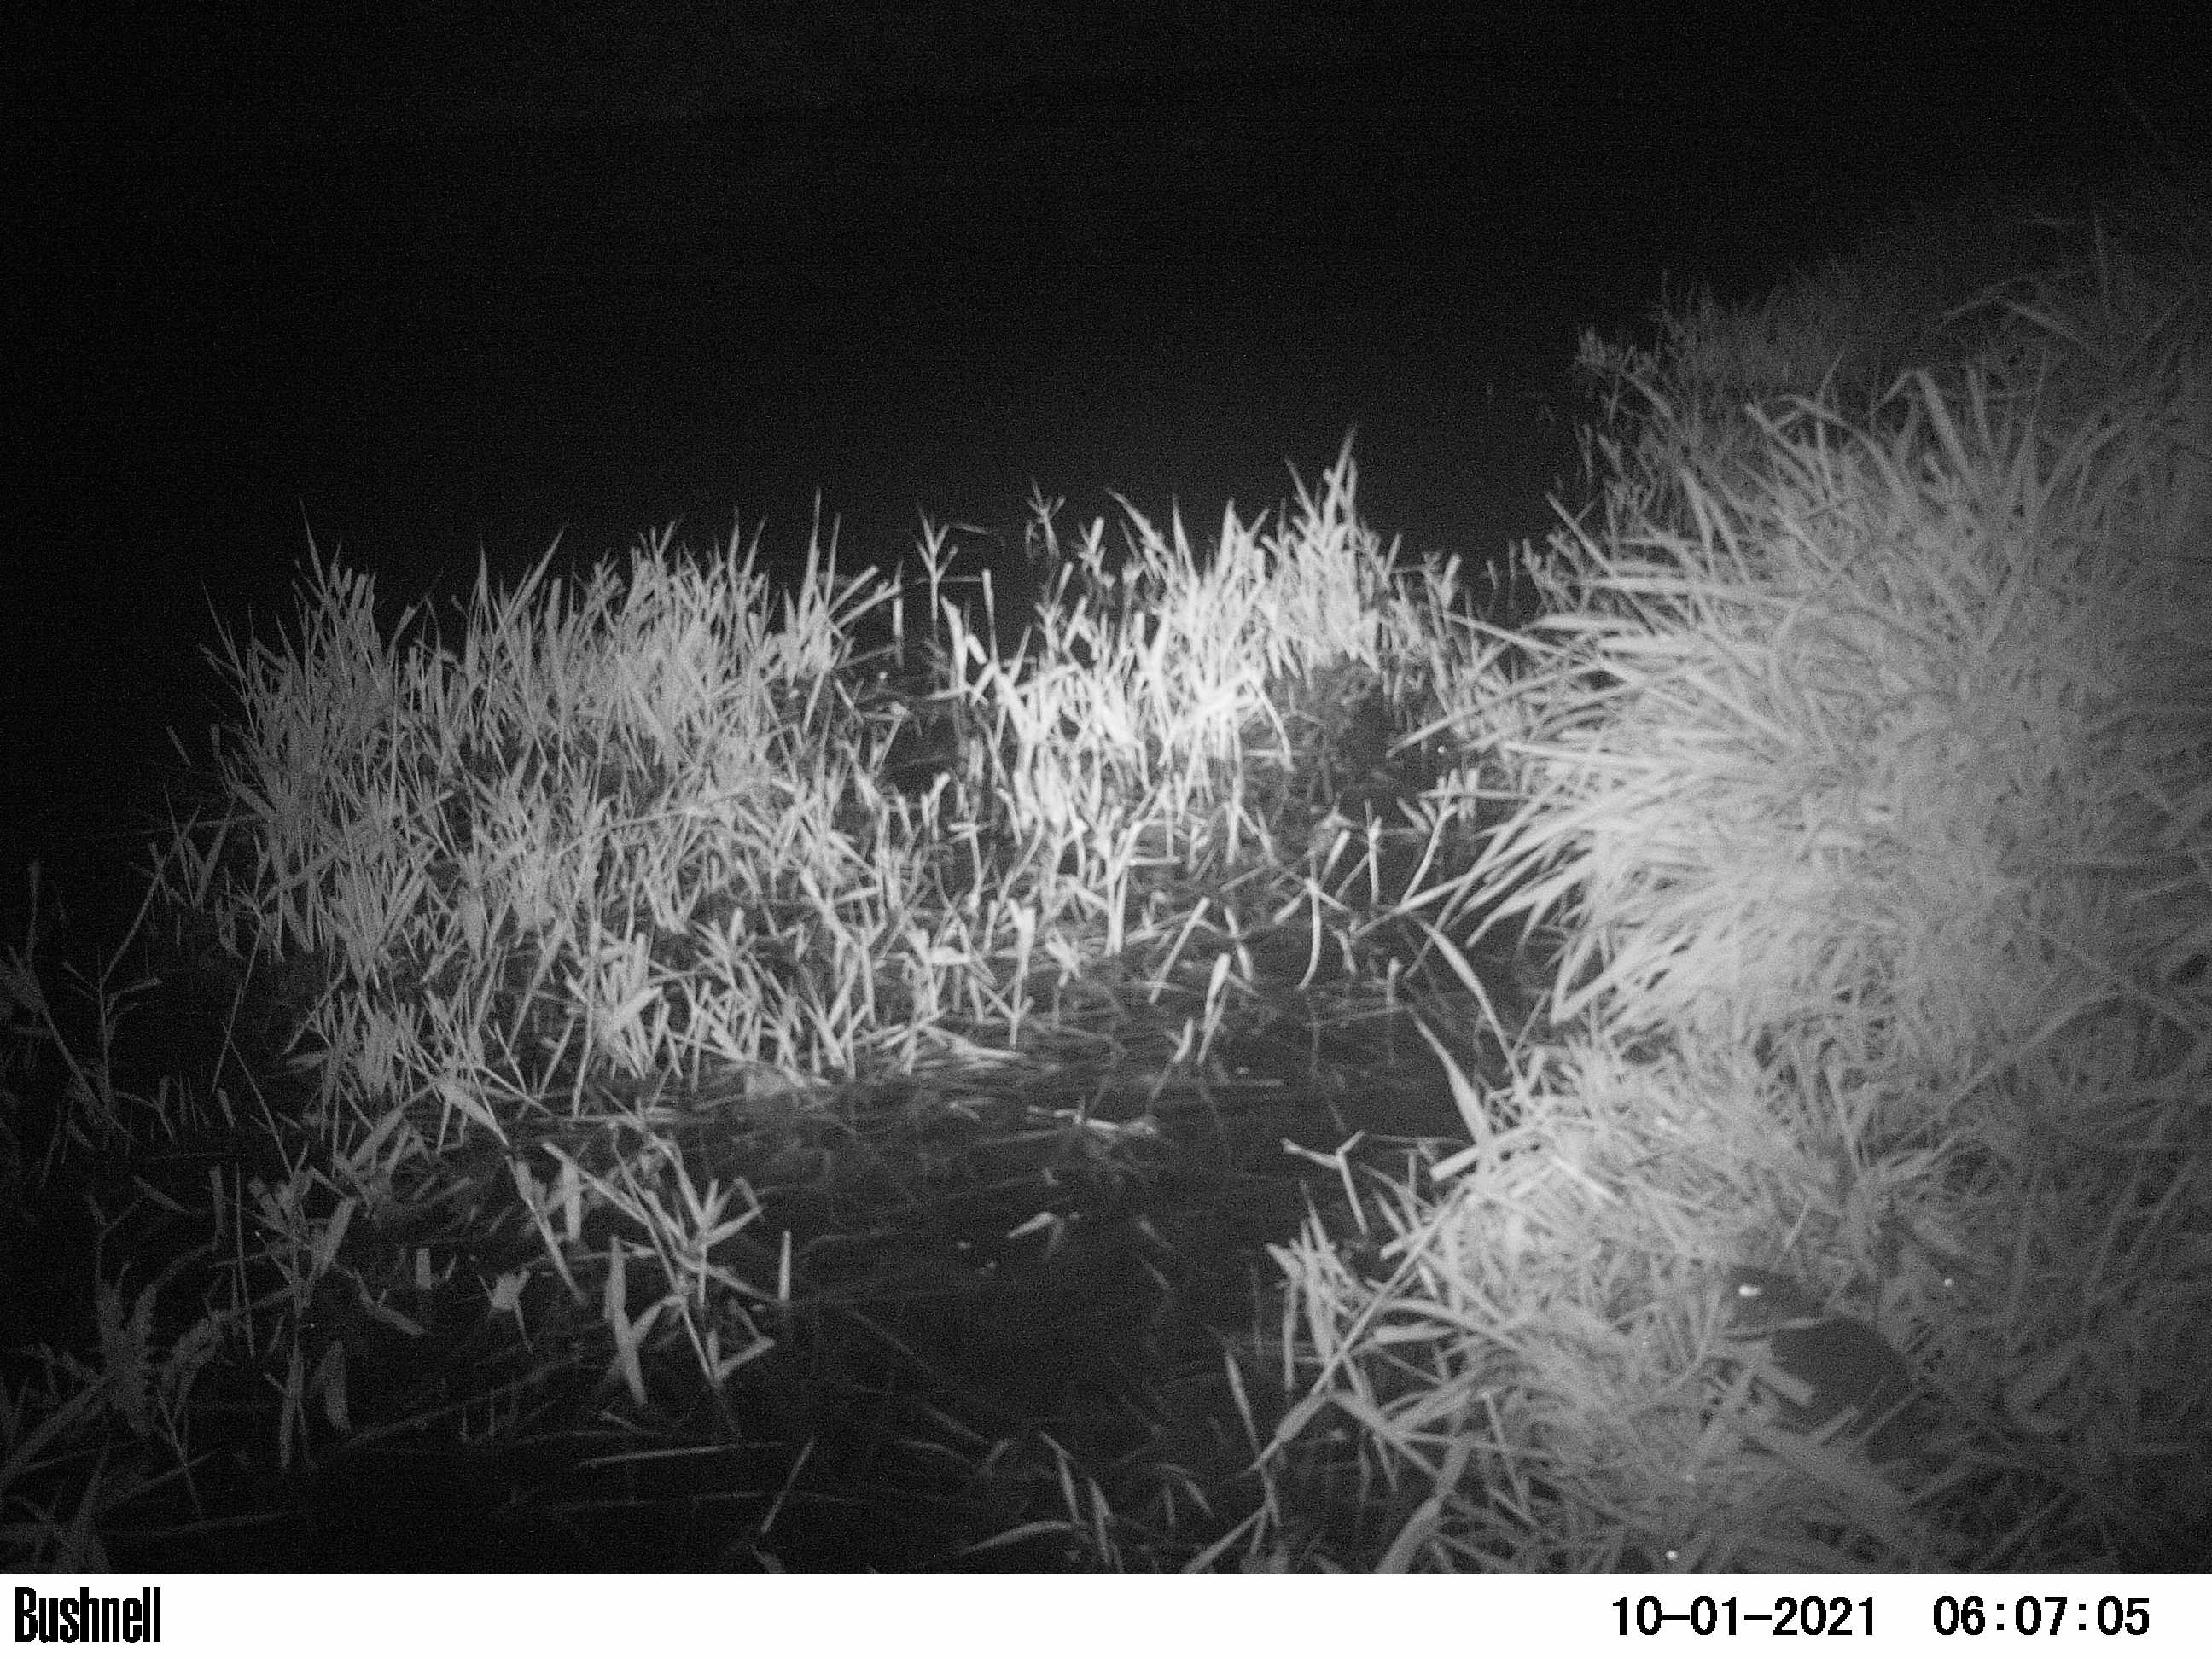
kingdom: Animalia
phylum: Chordata
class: Mammalia
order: Rodentia
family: Muridae
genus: Rattus
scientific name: Rattus norvegicus
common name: Brown rat
